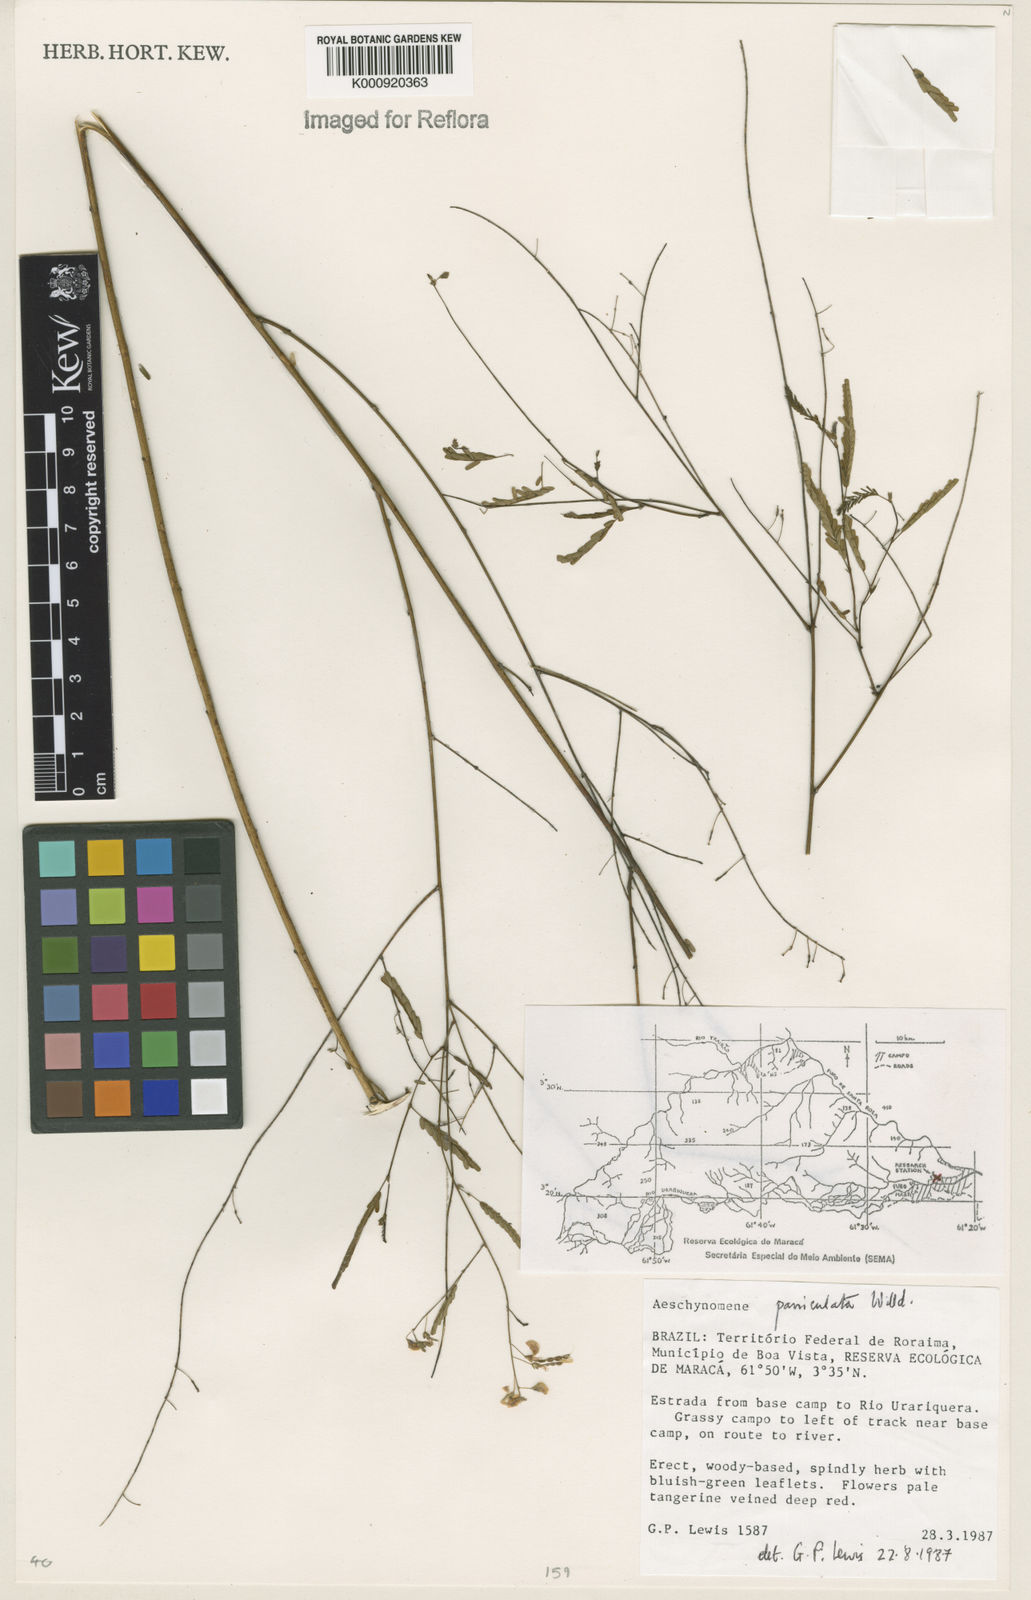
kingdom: Plantae
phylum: Tracheophyta
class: Magnoliopsida
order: Fabales
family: Fabaceae
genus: Ctenodon
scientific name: Ctenodon paniculatus
